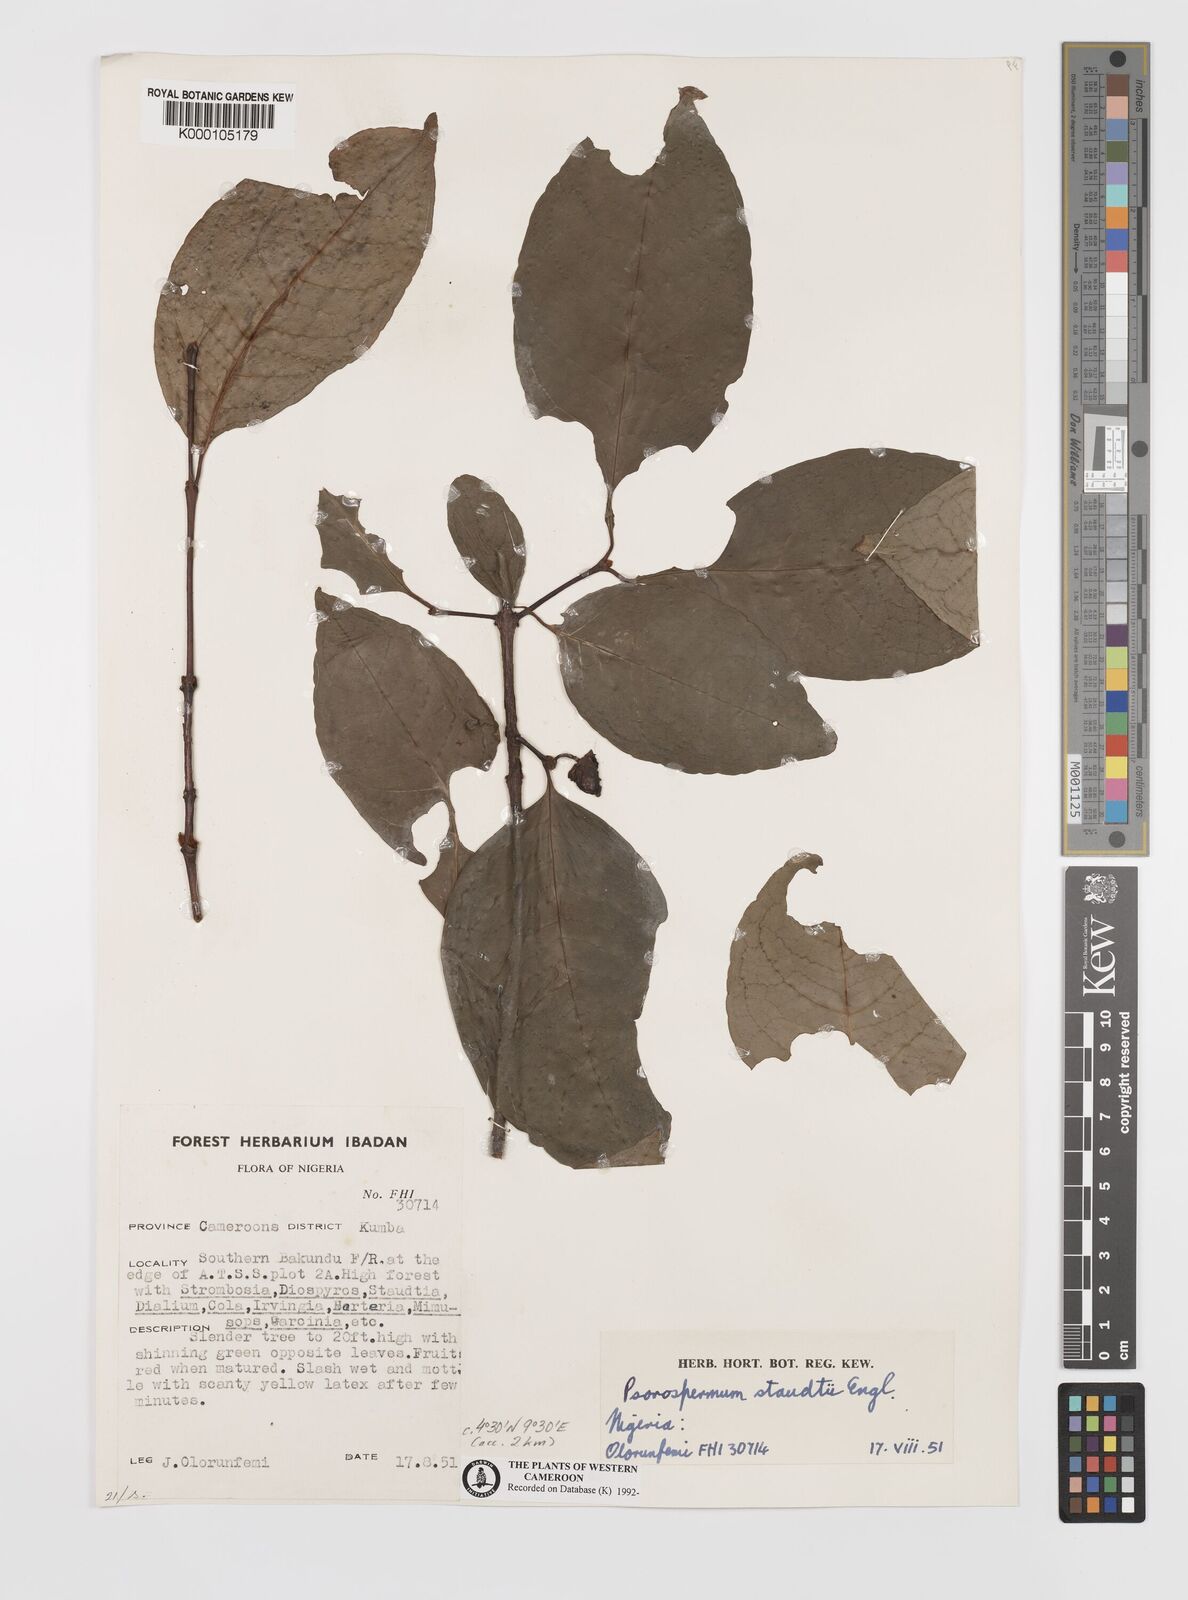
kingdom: Plantae
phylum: Tracheophyta
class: Magnoliopsida
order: Malpighiales
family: Hypericaceae
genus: Psorospermum
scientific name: Psorospermum staudtii
